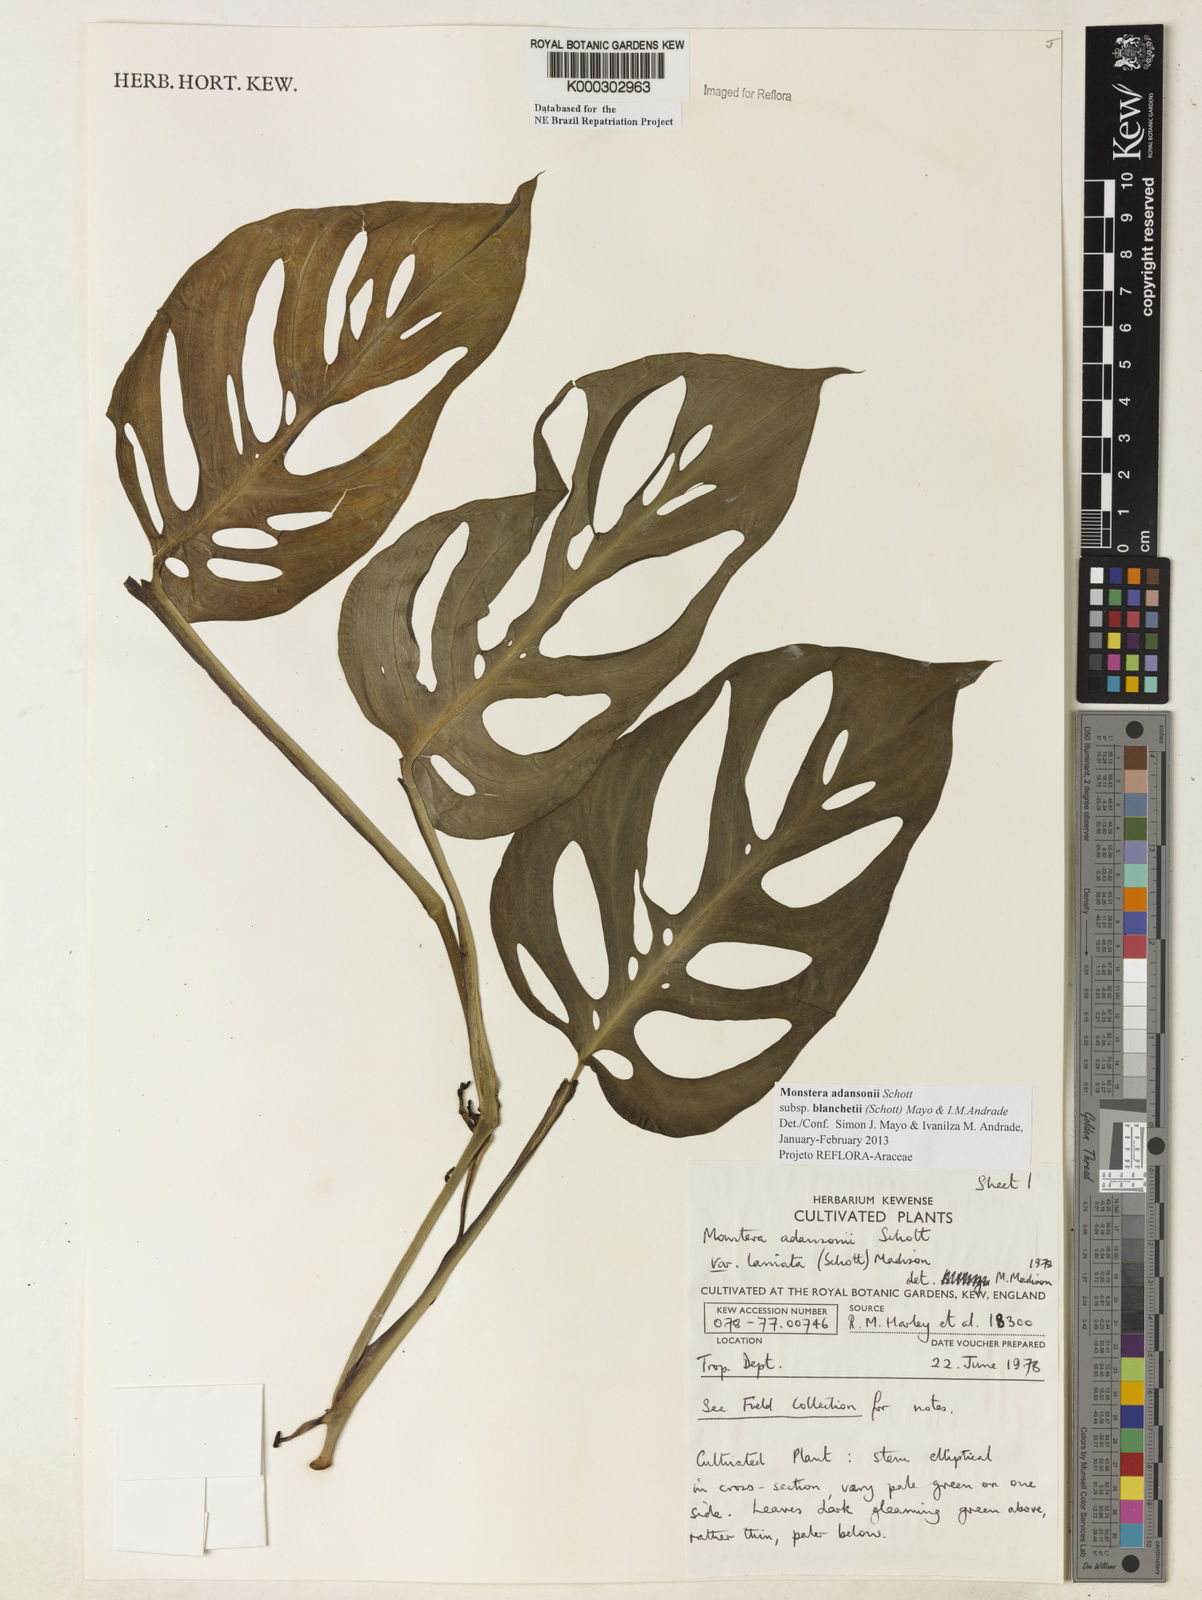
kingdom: Plantae
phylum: Tracheophyta
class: Liliopsida
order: Alismatales
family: Araceae
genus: Monstera
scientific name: Monstera adansonii
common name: Tarovine
